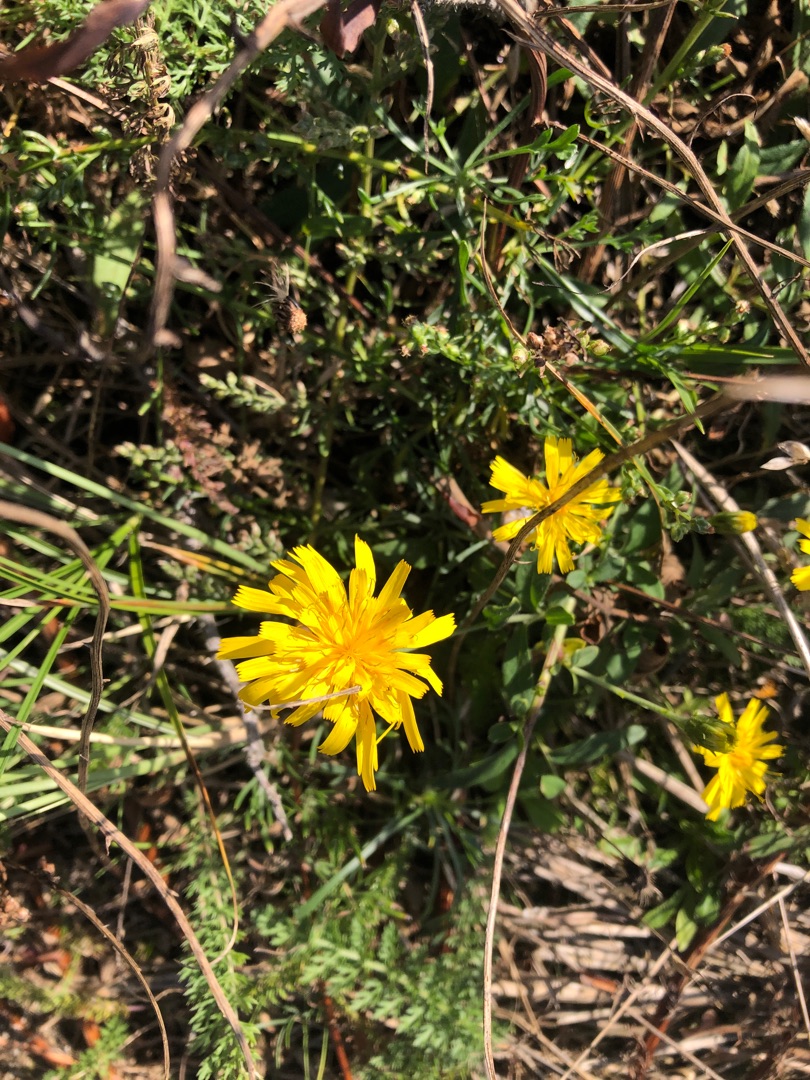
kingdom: Plantae
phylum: Tracheophyta
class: Magnoliopsida
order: Asterales
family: Asteraceae
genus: Hieracium
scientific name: Hieracium umbellatum
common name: Smalbladet høgeurt
